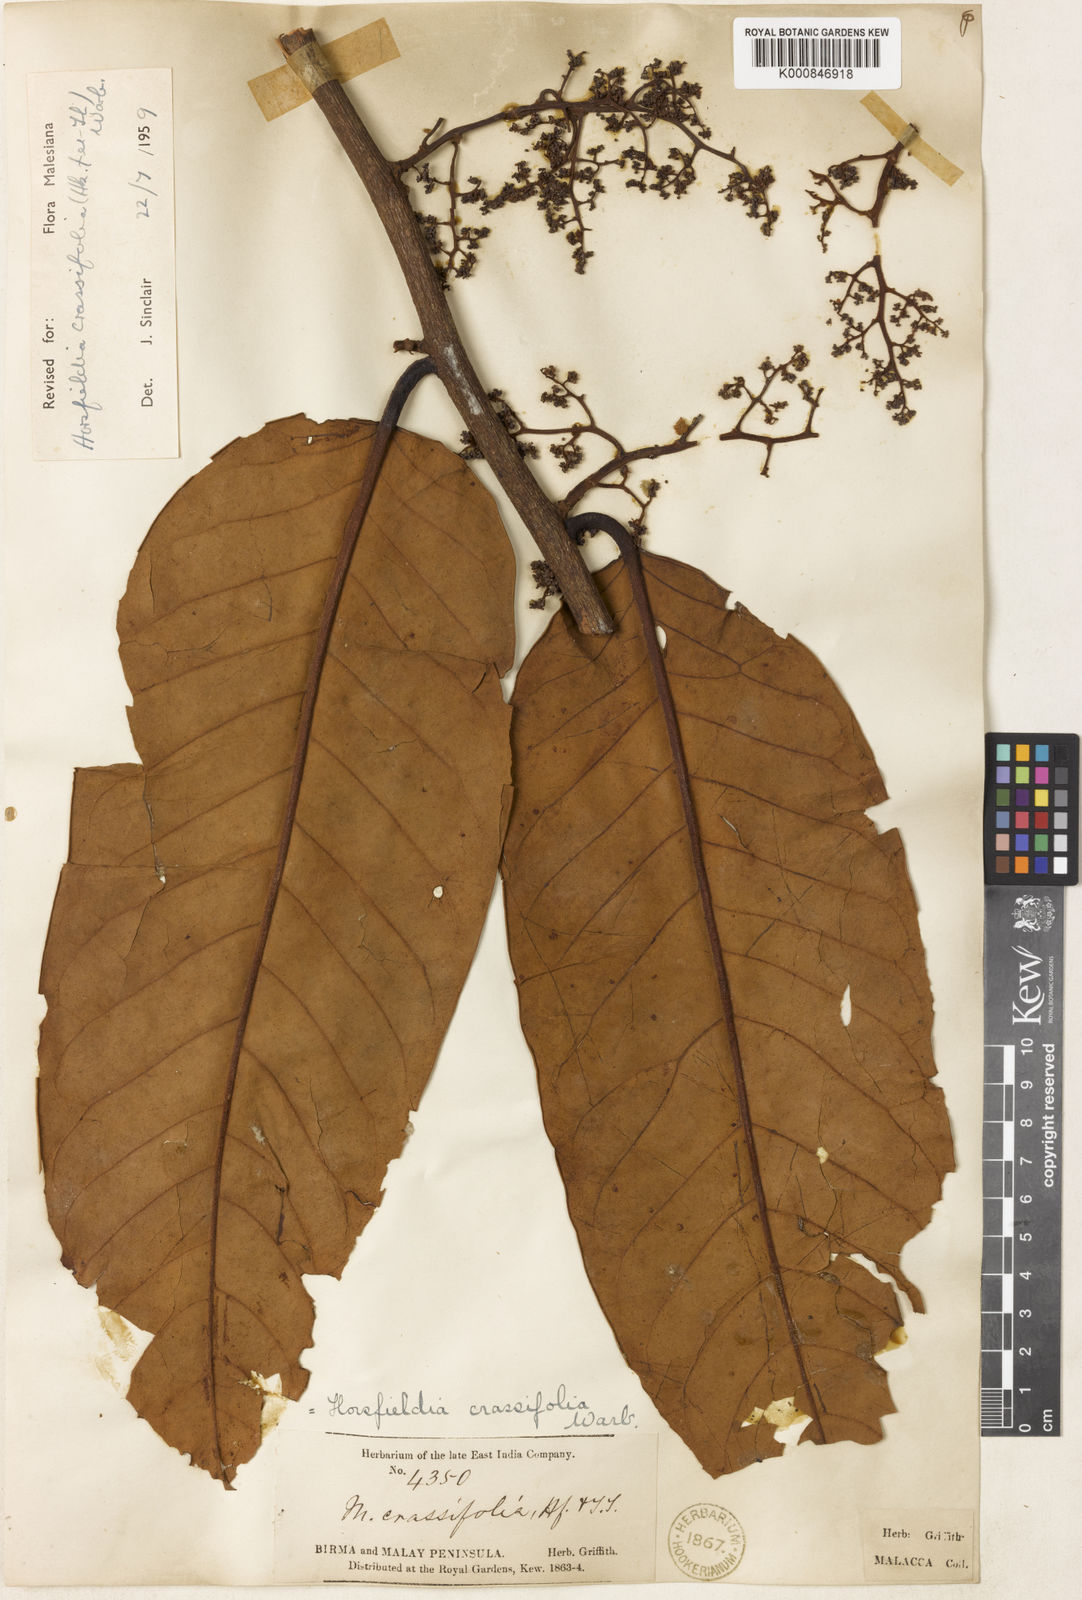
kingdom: Plantae
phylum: Tracheophyta
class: Magnoliopsida
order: Magnoliales
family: Myristicaceae
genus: Horsfieldia
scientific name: Horsfieldia crassifolia
